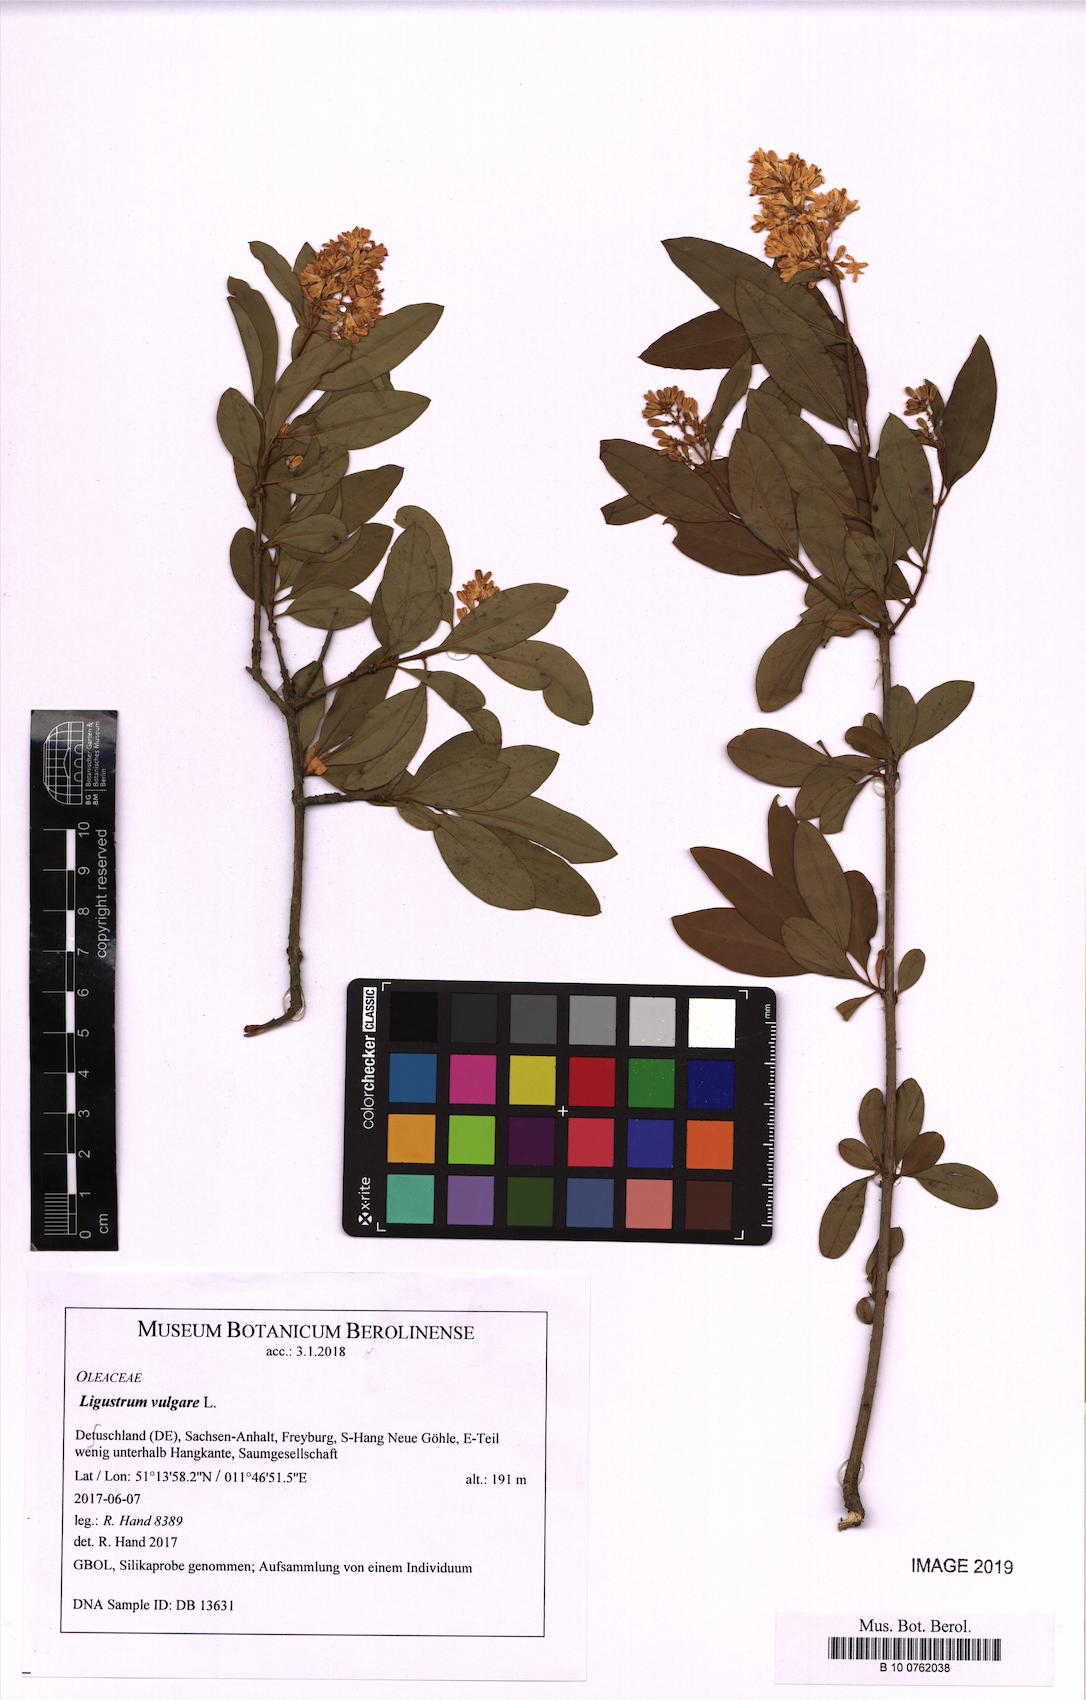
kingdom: Plantae
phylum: Tracheophyta
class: Magnoliopsida
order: Lamiales
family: Oleaceae
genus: Ligustrum
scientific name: Ligustrum vulgare
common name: Wild privet
